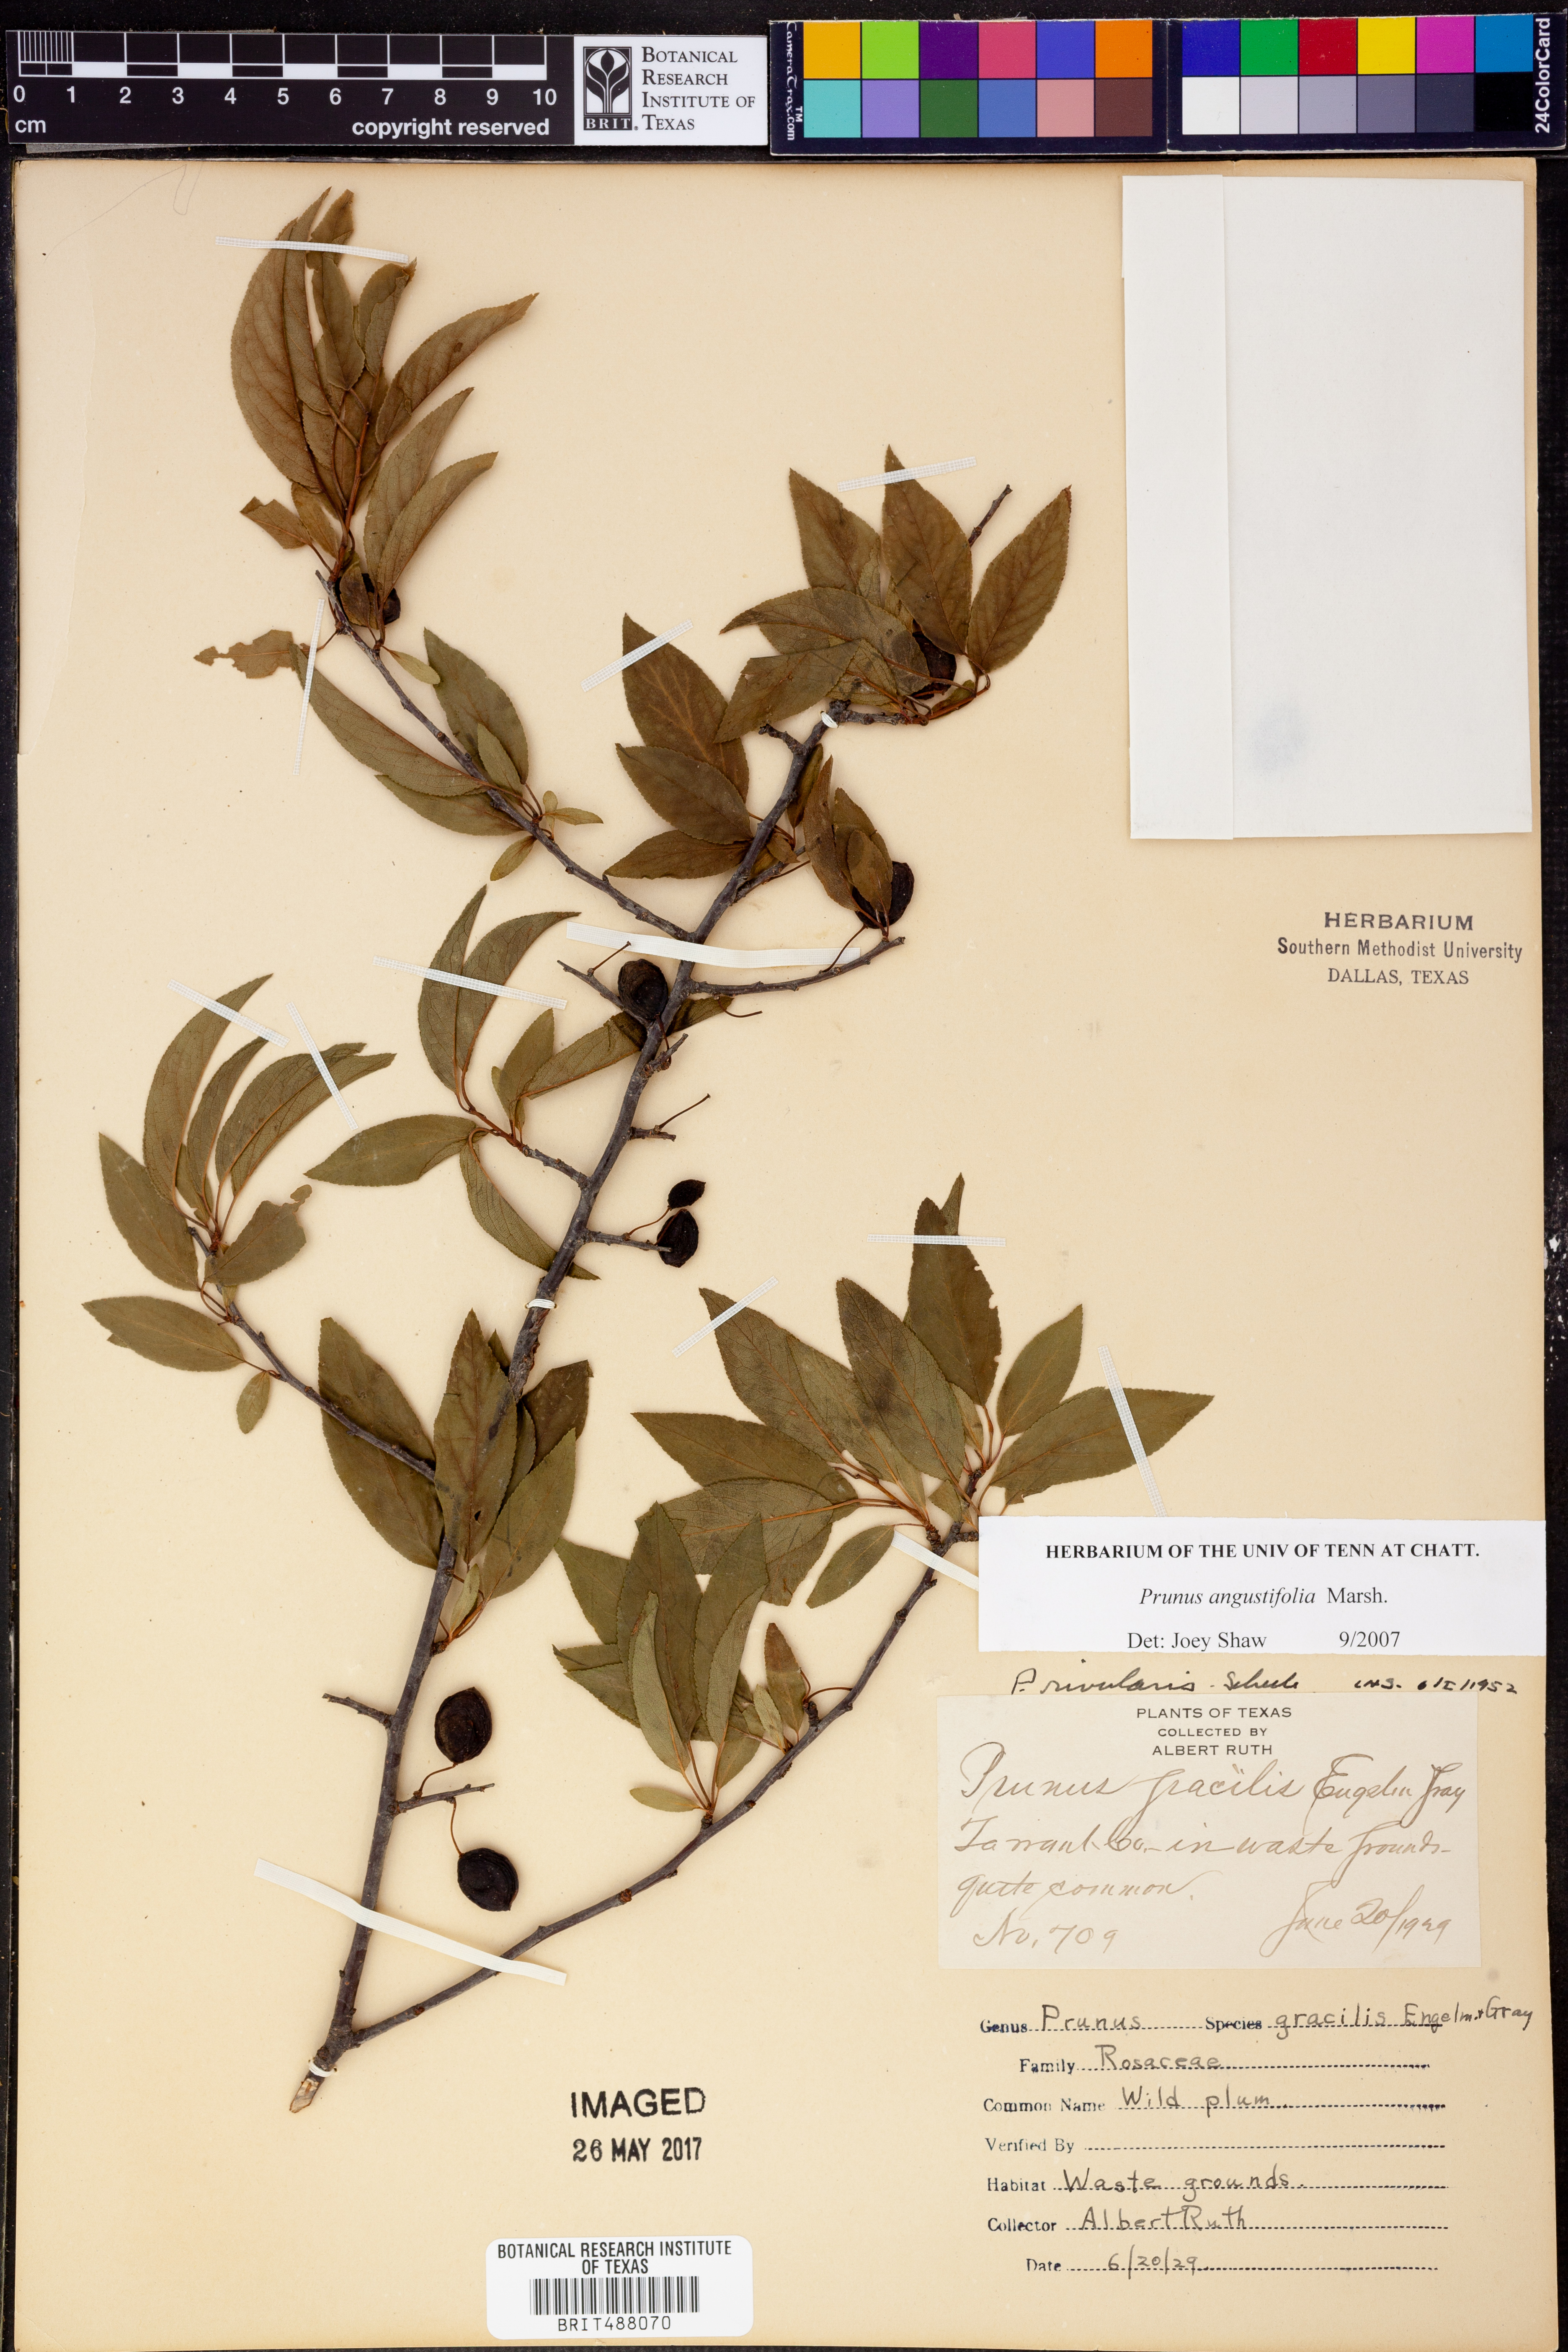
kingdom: Plantae
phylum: Tracheophyta
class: Magnoliopsida
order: Rosales
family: Rosaceae
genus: Prunus
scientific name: Prunus angustifolia
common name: Cherokee plum
